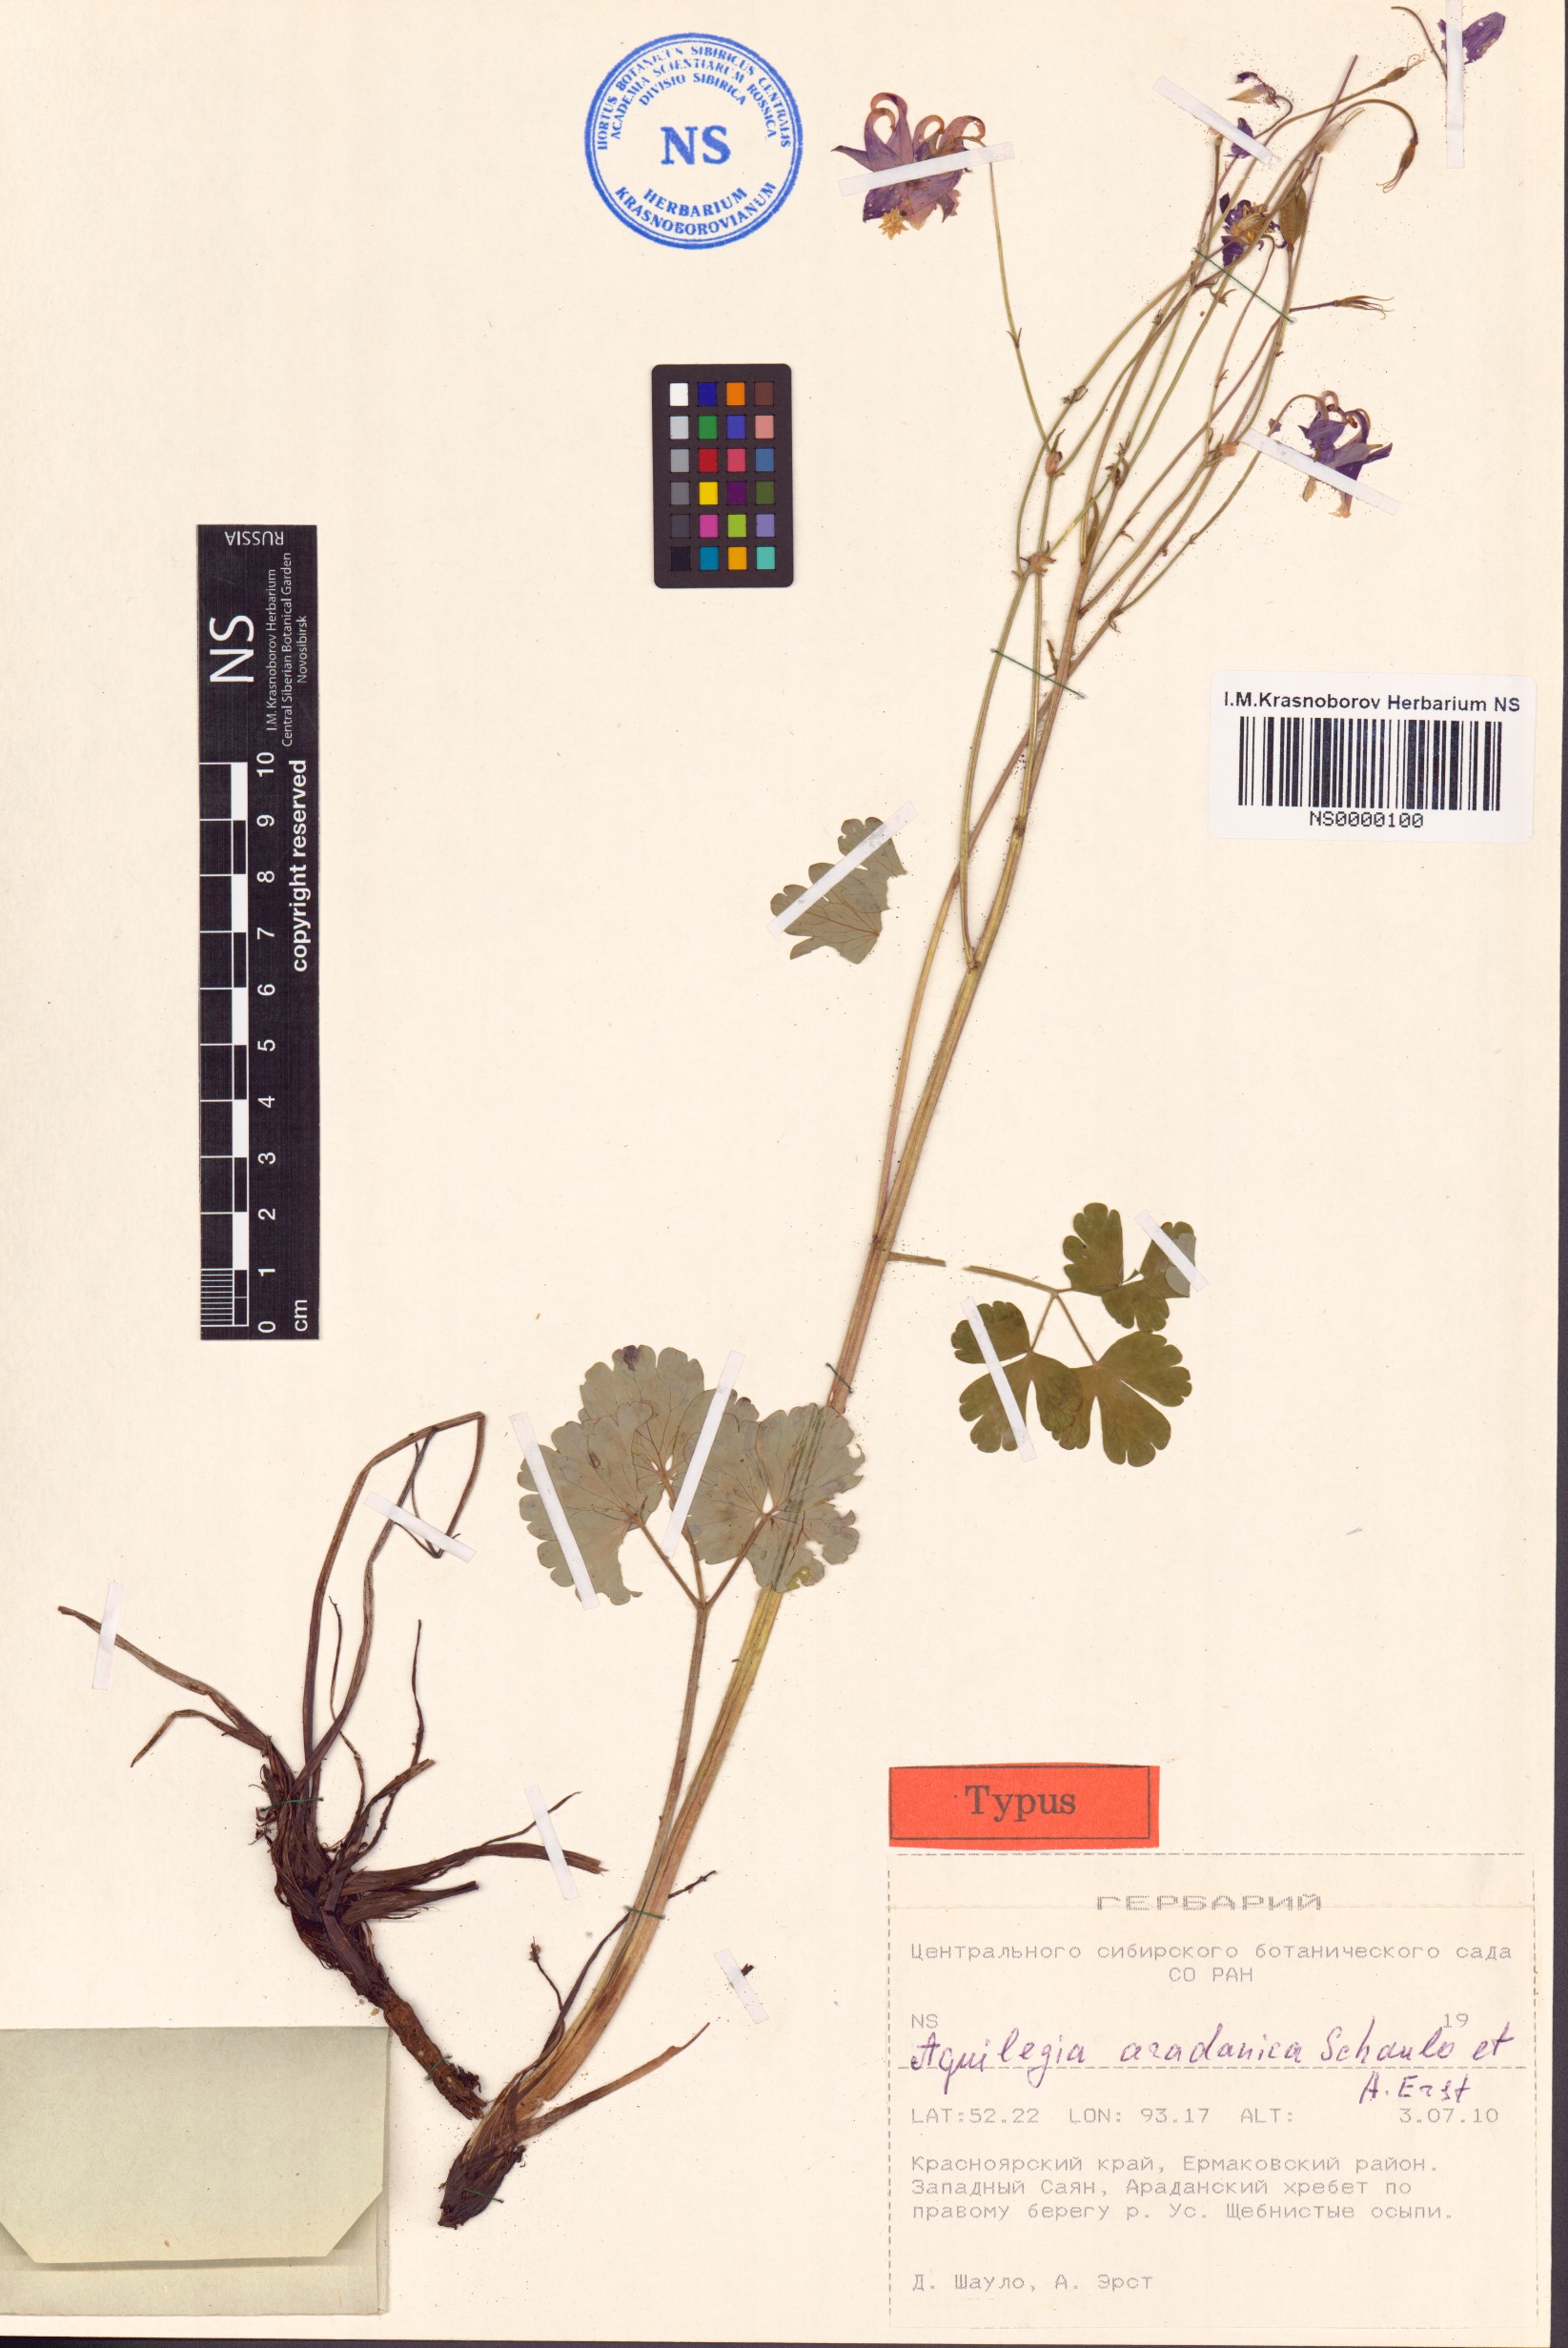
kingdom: Plantae
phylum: Tracheophyta
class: Magnoliopsida
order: Ranunculales
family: Ranunculaceae
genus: Aquilegia
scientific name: Aquilegia aradanica
